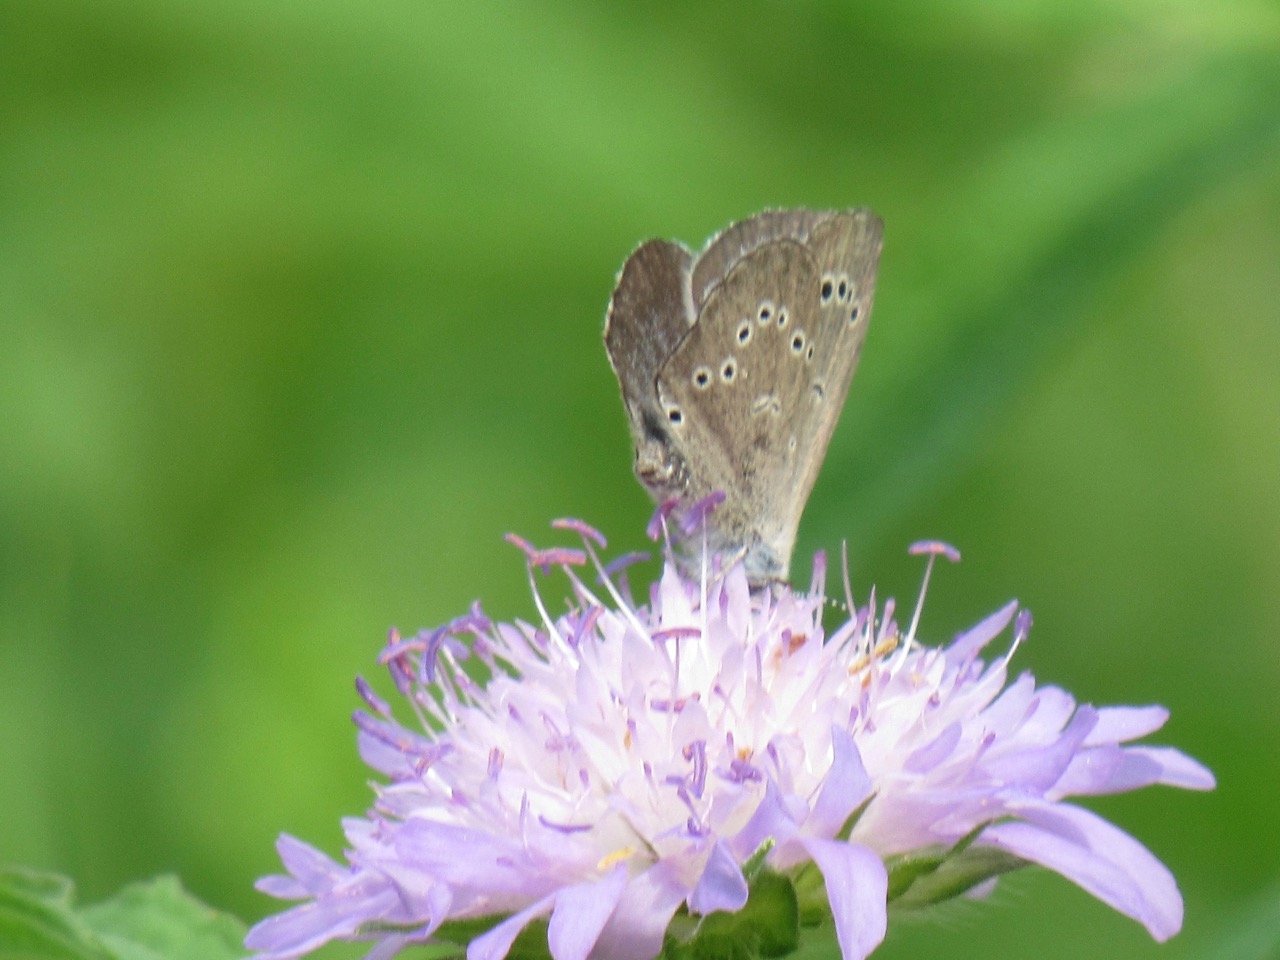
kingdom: Animalia
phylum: Arthropoda
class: Insecta
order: Lepidoptera
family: Lycaenidae
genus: Glaucopsyche
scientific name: Glaucopsyche lygdamus
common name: Silvery Blue
